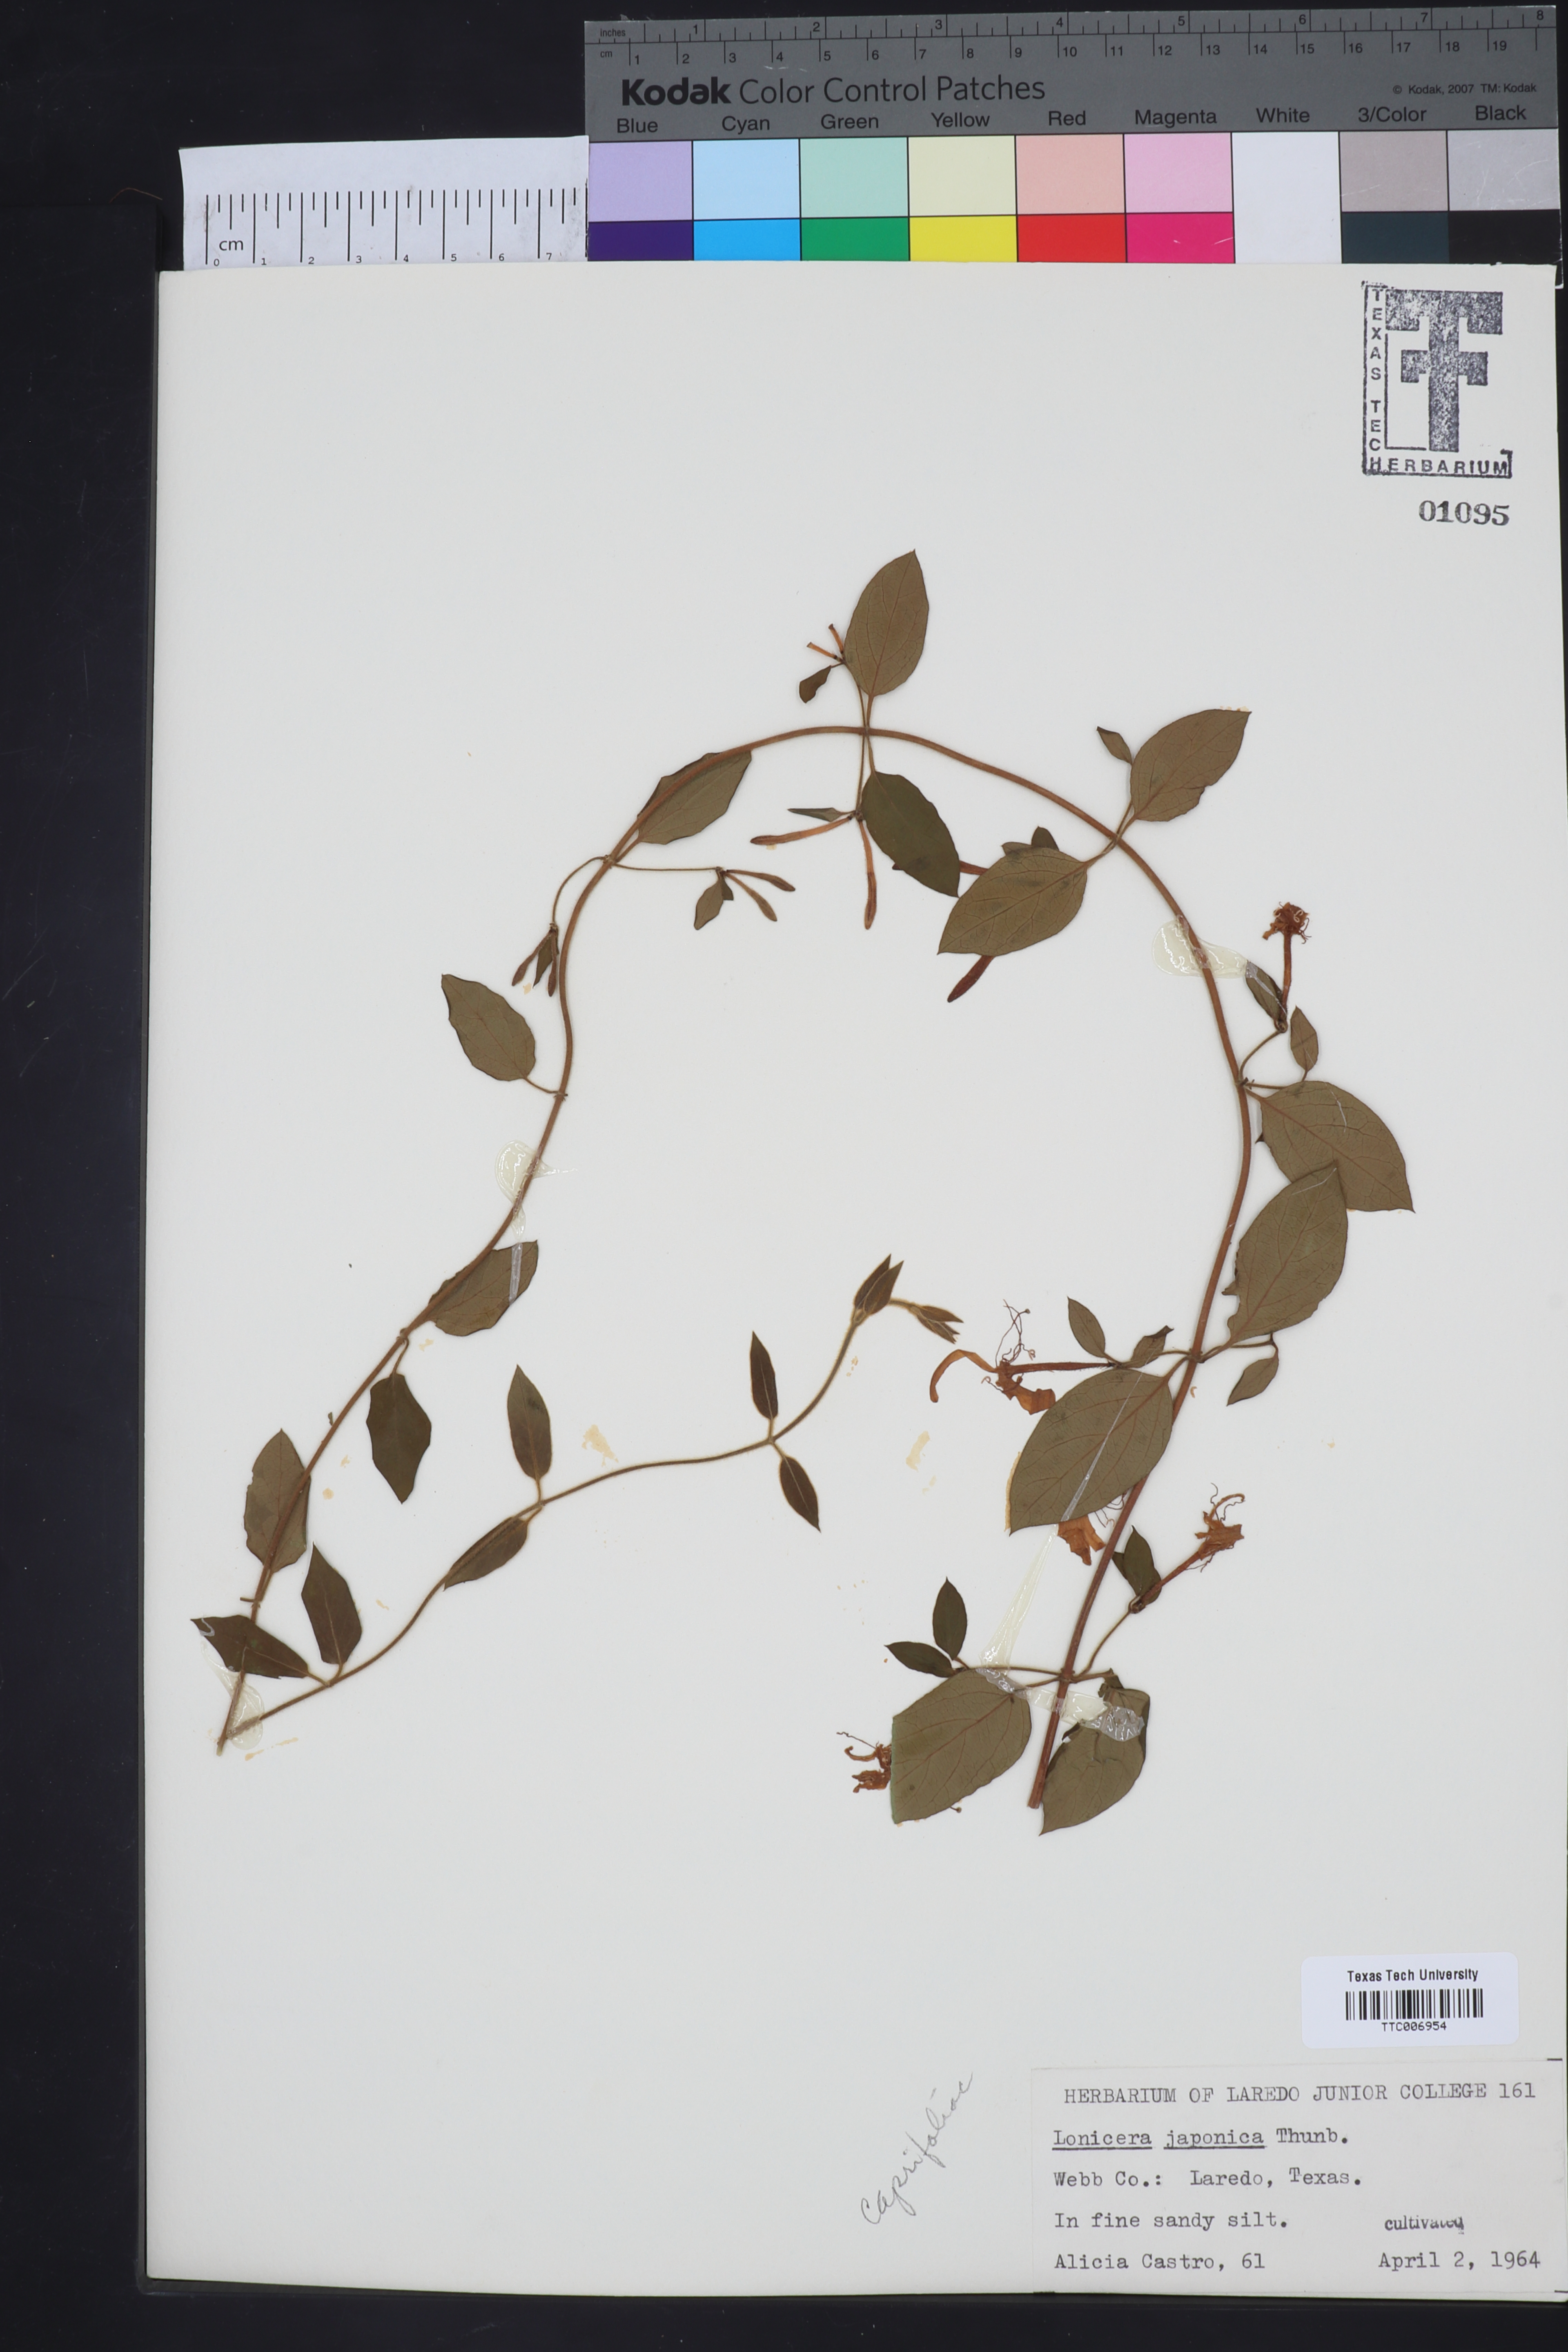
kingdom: Plantae
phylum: Tracheophyta
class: Magnoliopsida
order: Dipsacales
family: Caprifoliaceae
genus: Lonicera
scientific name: Lonicera japonica
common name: Japanese honeysuckle
